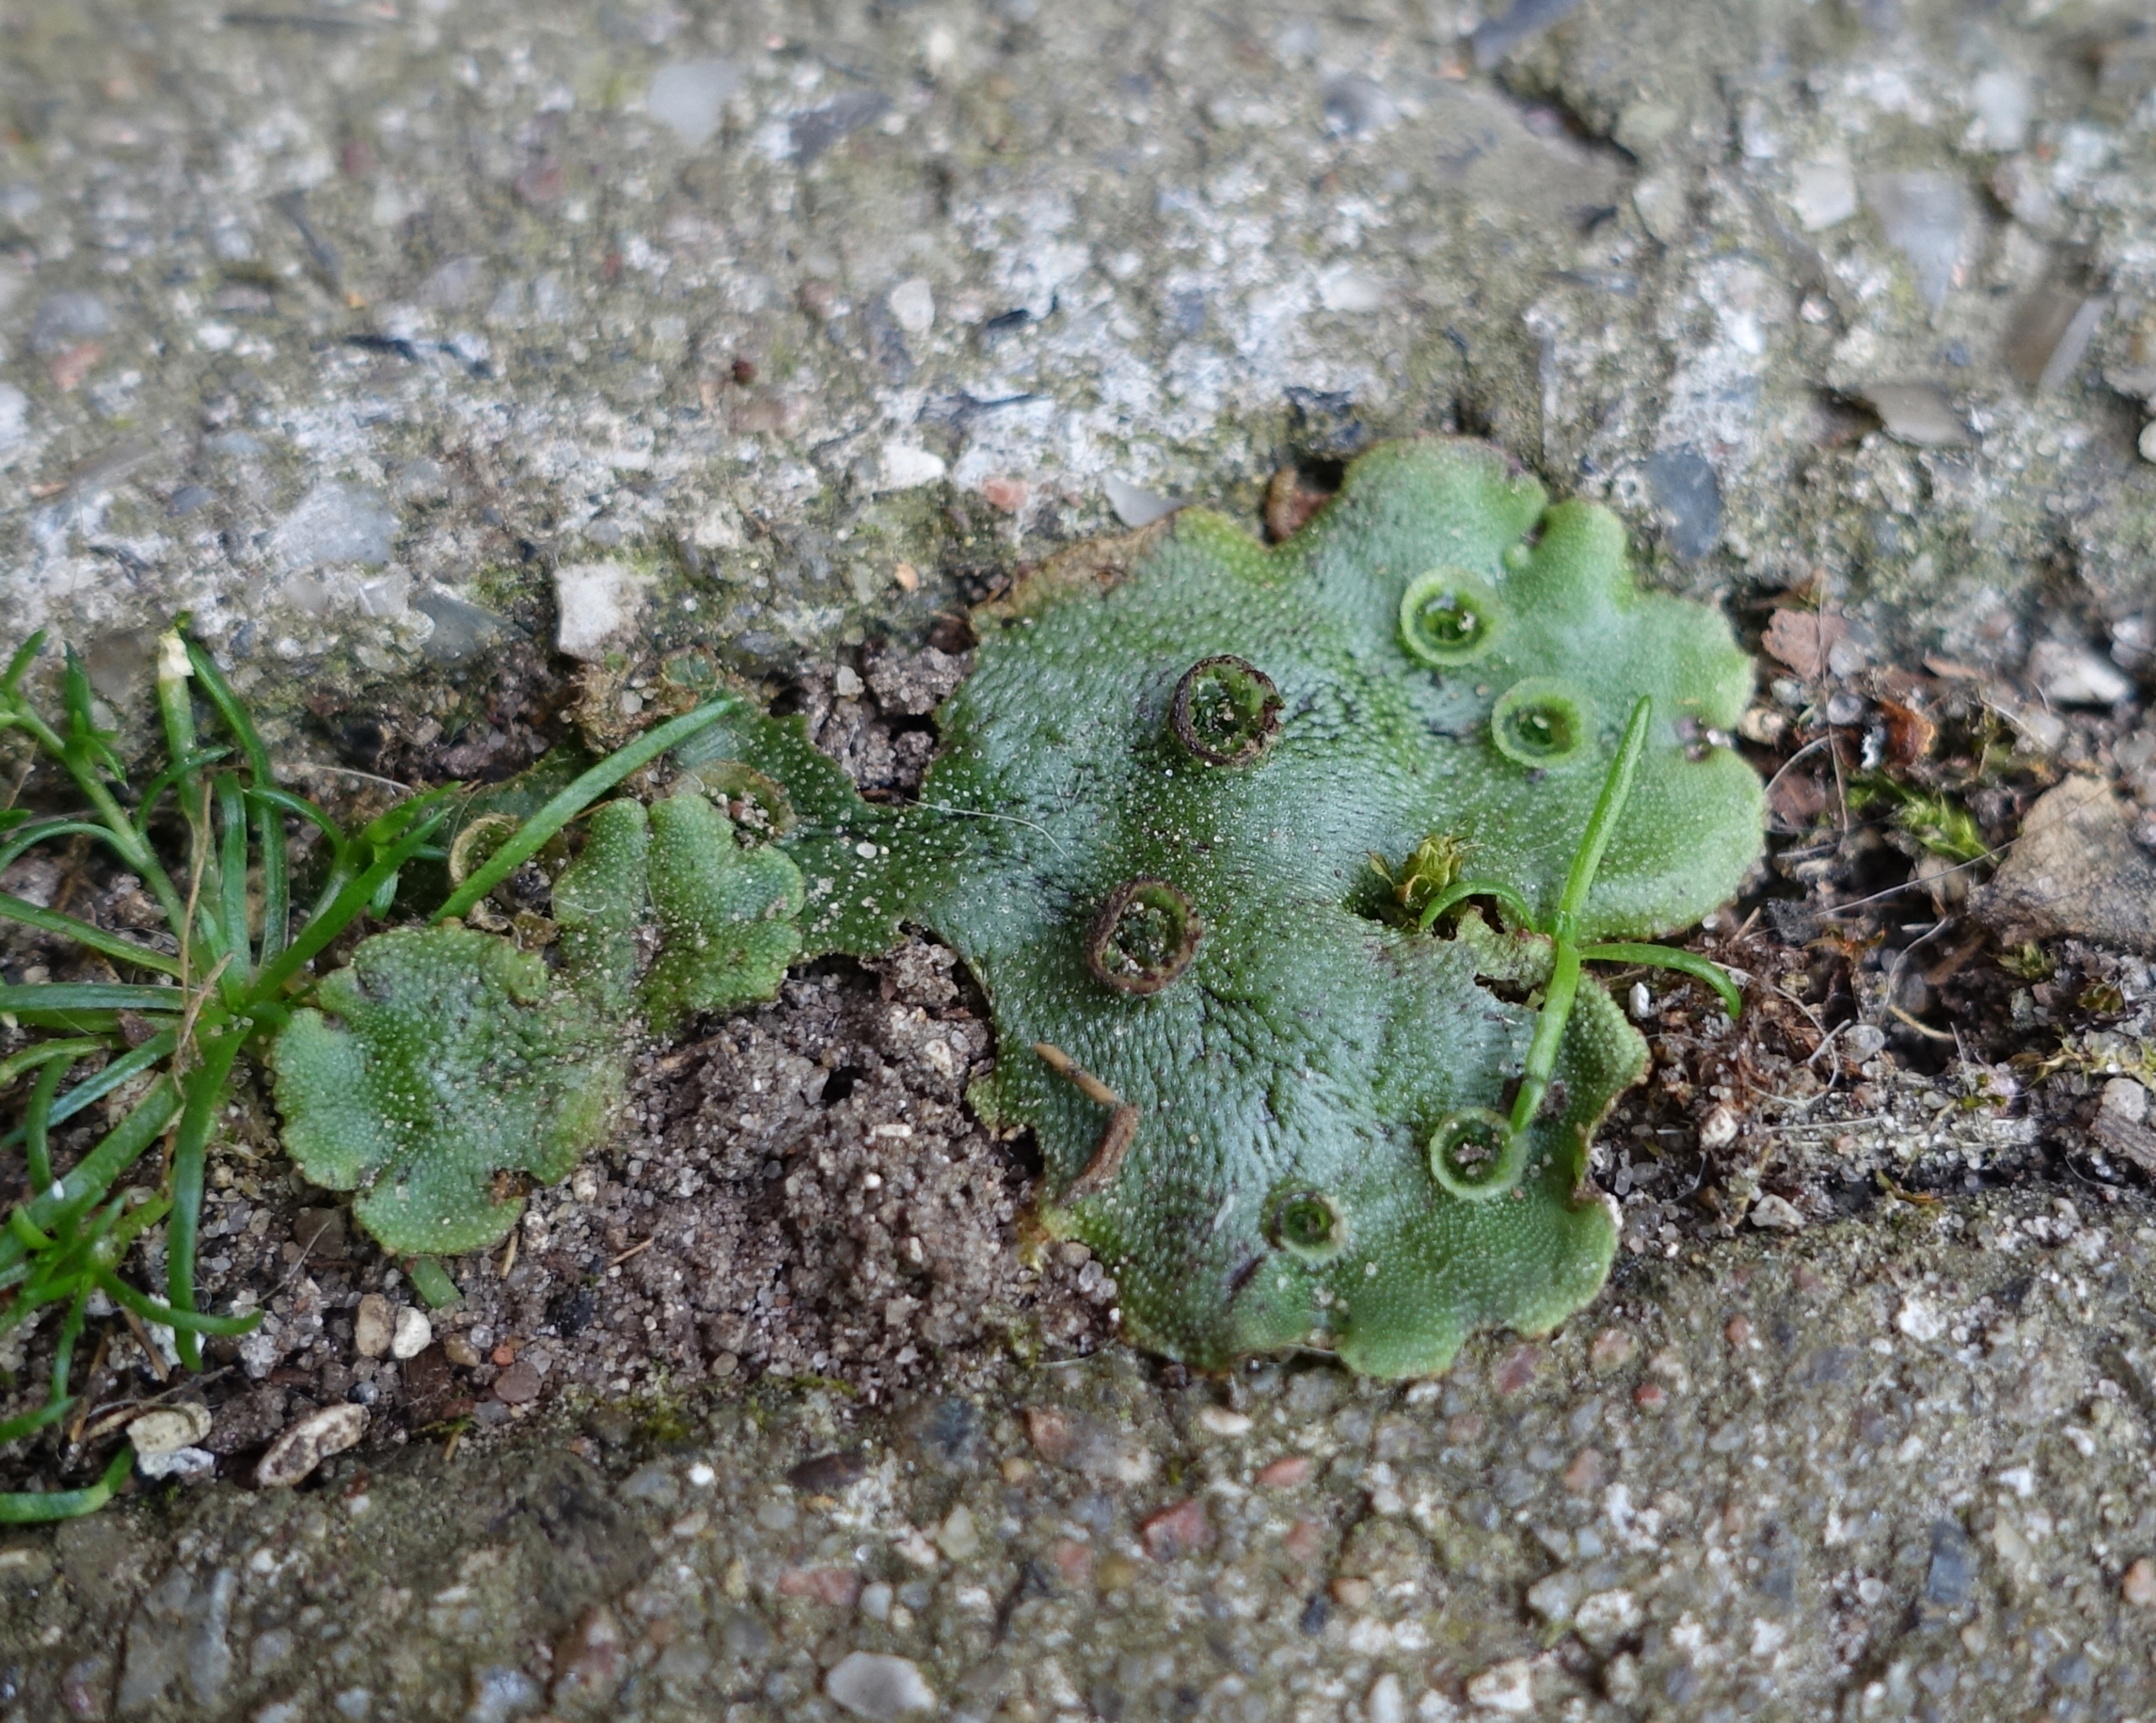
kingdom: Plantae
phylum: Marchantiophyta
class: Marchantiopsida
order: Marchantiales
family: Marchantiaceae
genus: Marchantia
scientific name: Marchantia polymorpha
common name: Almindelig lungemos (underart)
